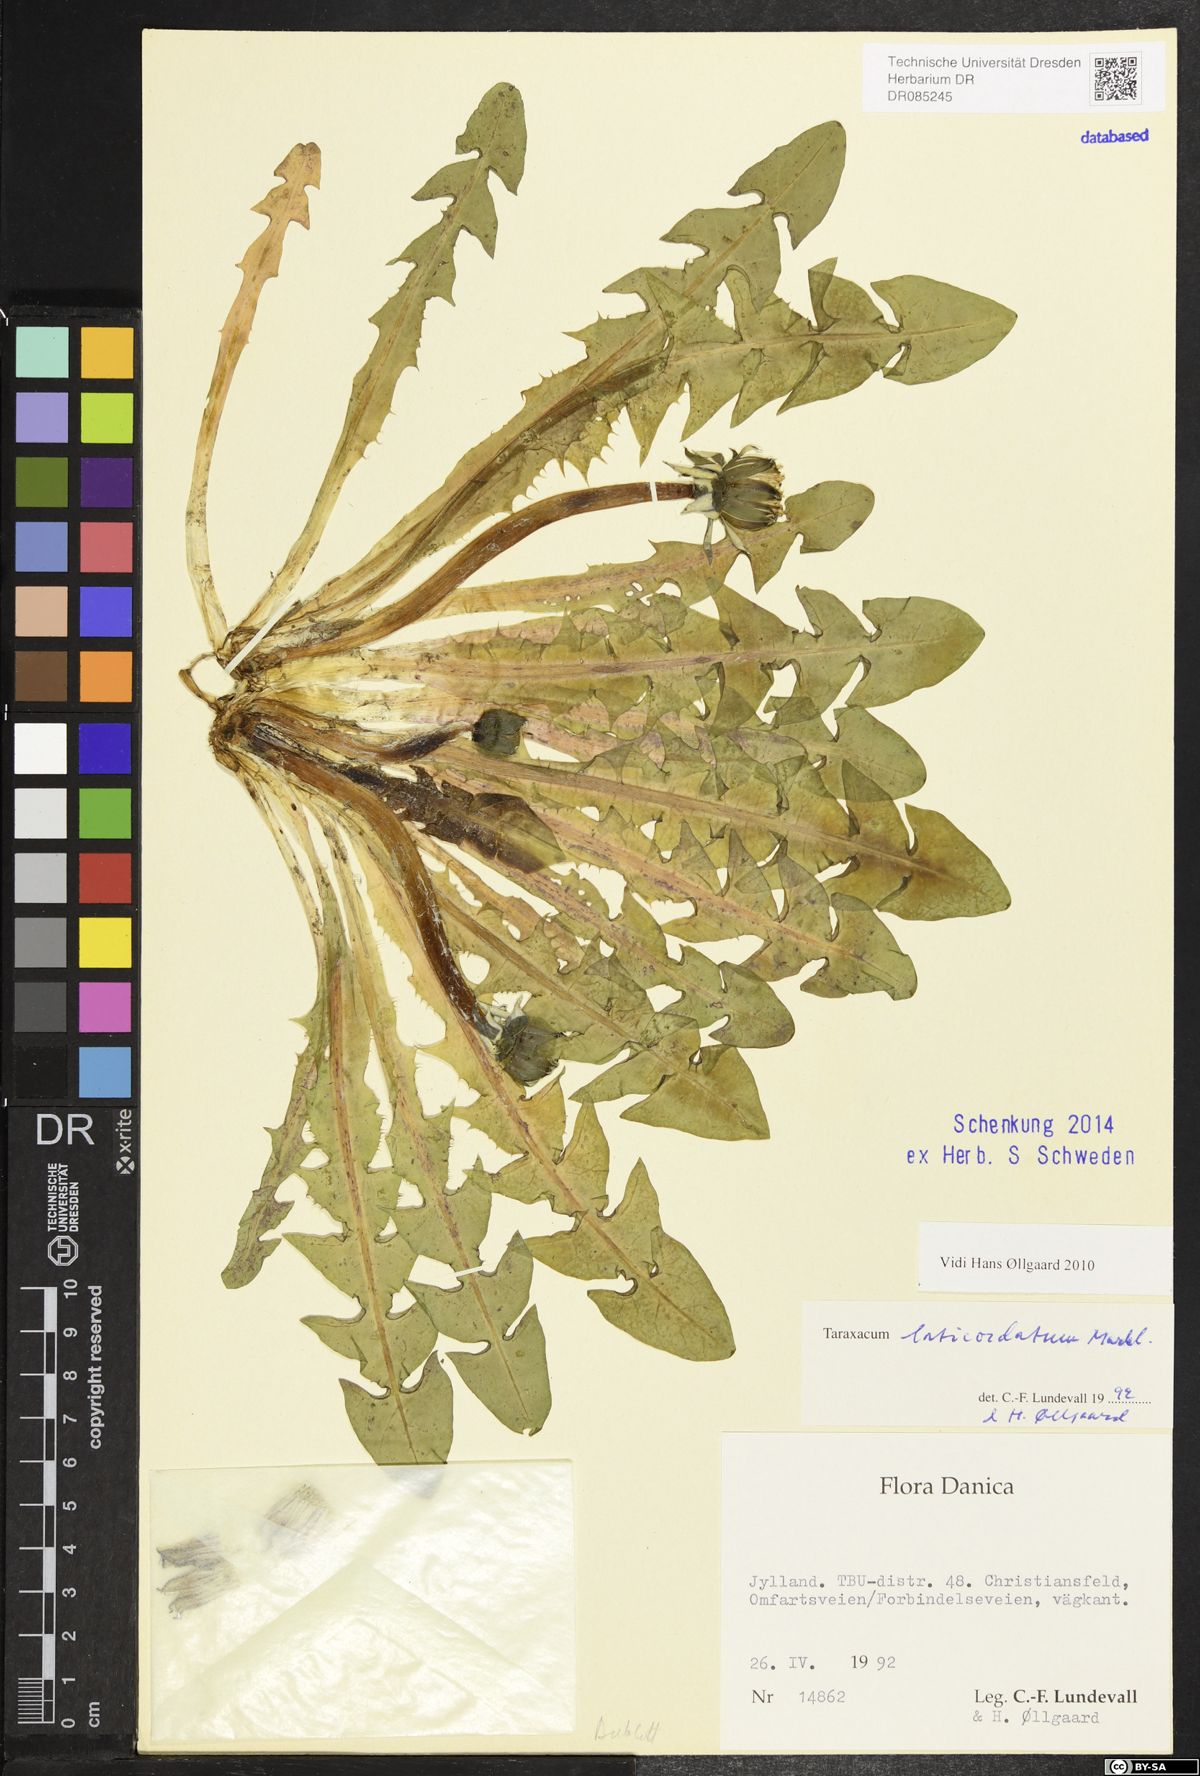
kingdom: Plantae
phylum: Tracheophyta
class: Magnoliopsida
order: Asterales
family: Asteraceae
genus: Taraxacum
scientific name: Taraxacum laticordatum
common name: Decumbent dandelion
